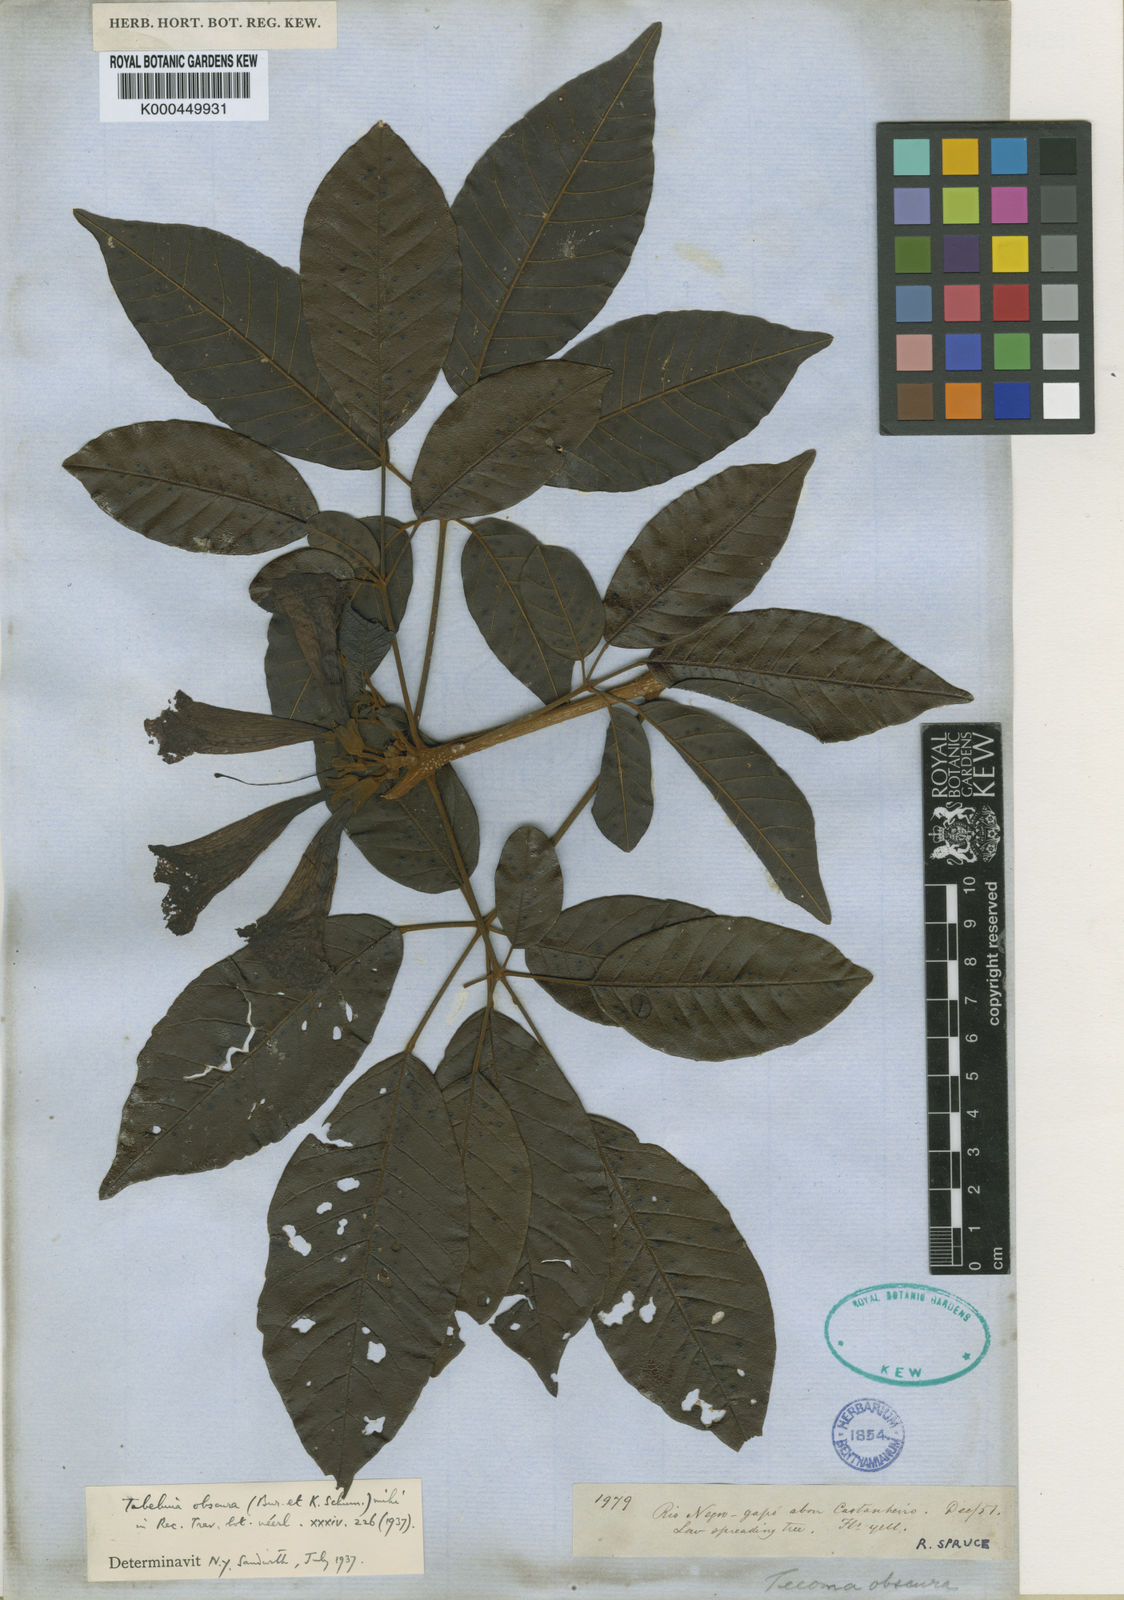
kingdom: Plantae
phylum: Tracheophyta
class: Magnoliopsida
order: Lamiales
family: Bignoniaceae
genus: Handroanthus
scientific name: Handroanthus obscurus
